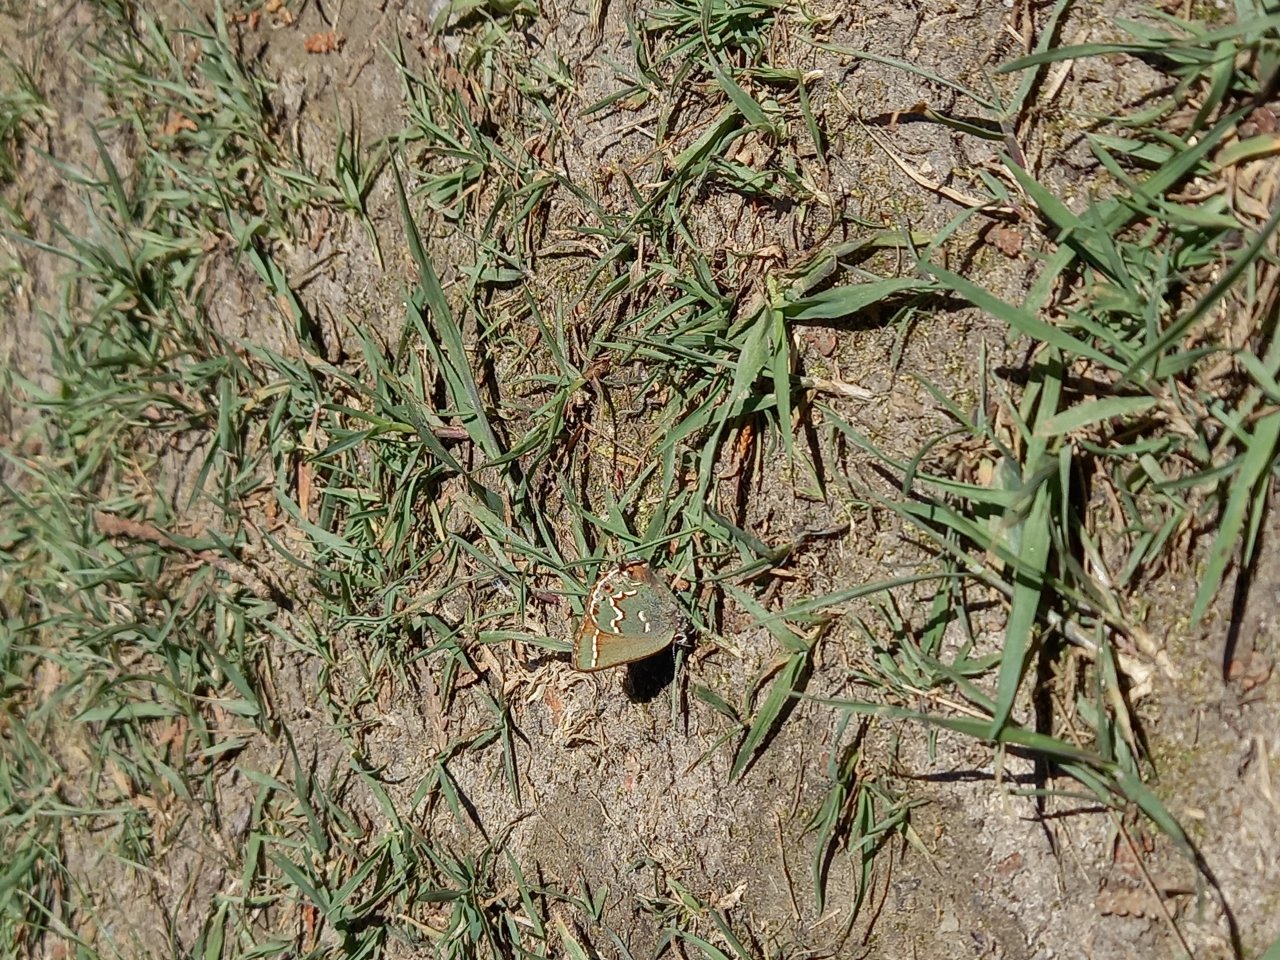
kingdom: Animalia
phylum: Arthropoda
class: Insecta
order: Lepidoptera
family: Lycaenidae
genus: Mitoura
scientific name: Mitoura gryneus
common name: Juniper Hairstreak
